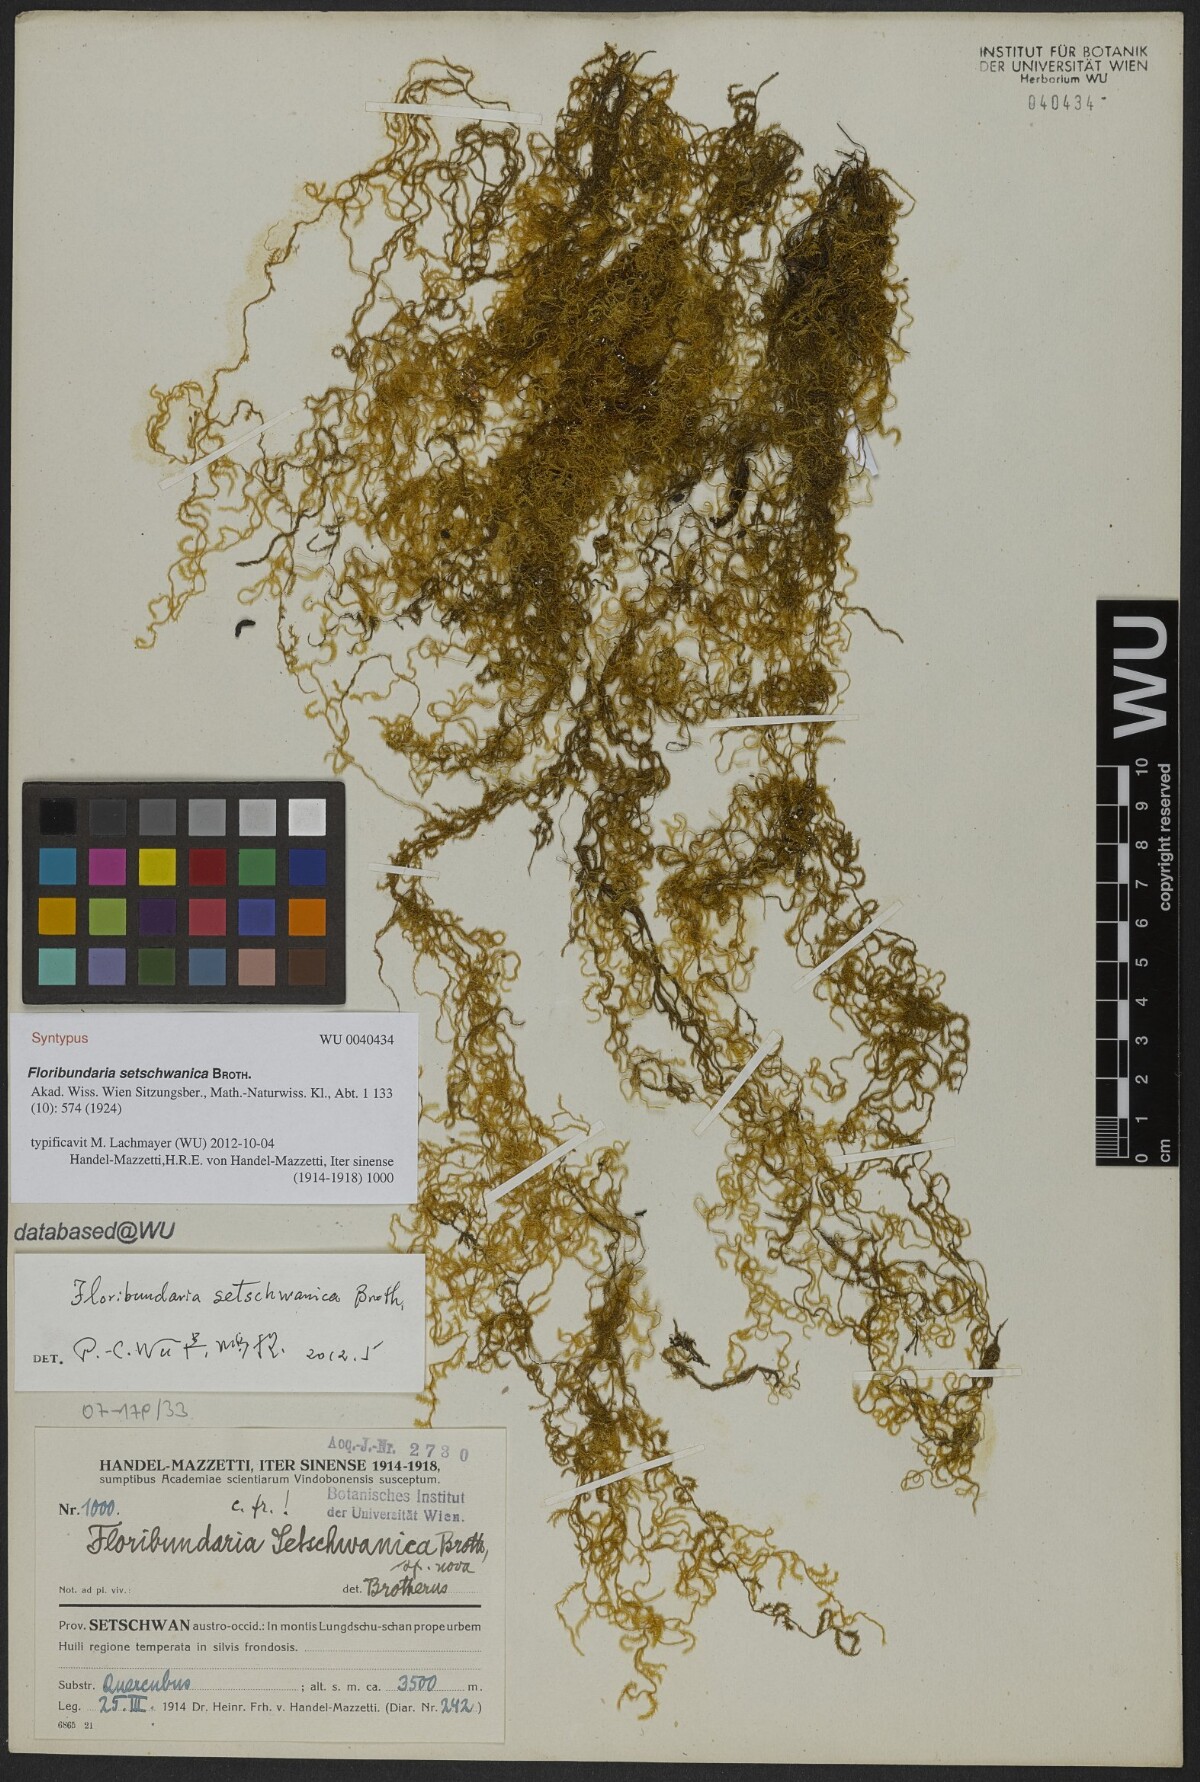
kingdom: Plantae
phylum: Bryophyta
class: Bryopsida
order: Hypnales
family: Meteoriaceae
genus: Floribundaria
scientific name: Floribundaria setschwanica
